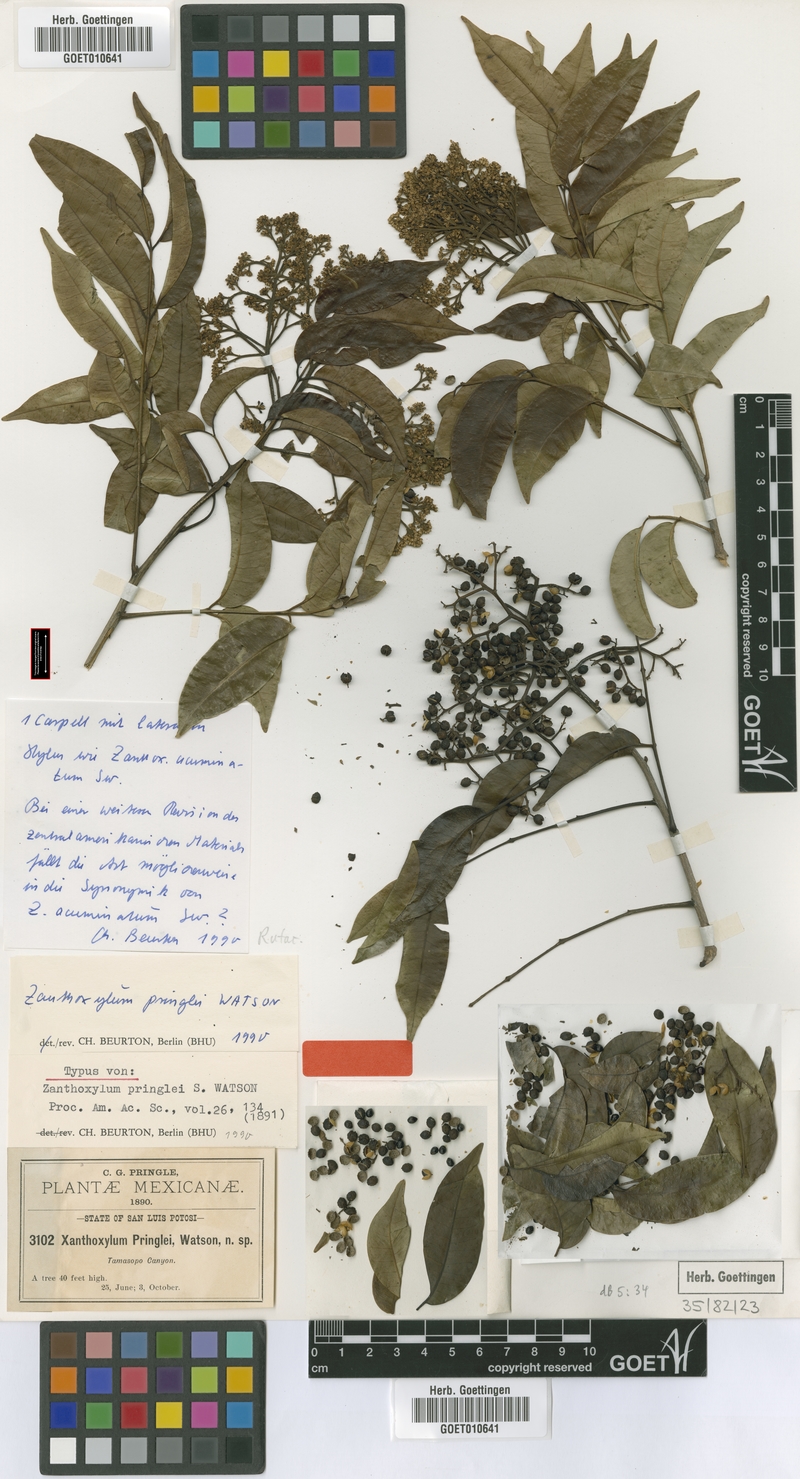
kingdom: Plantae
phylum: Tracheophyta
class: Magnoliopsida
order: Sapindales
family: Rutaceae
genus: Zanthoxylum
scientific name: Zanthoxylum acuminatum
